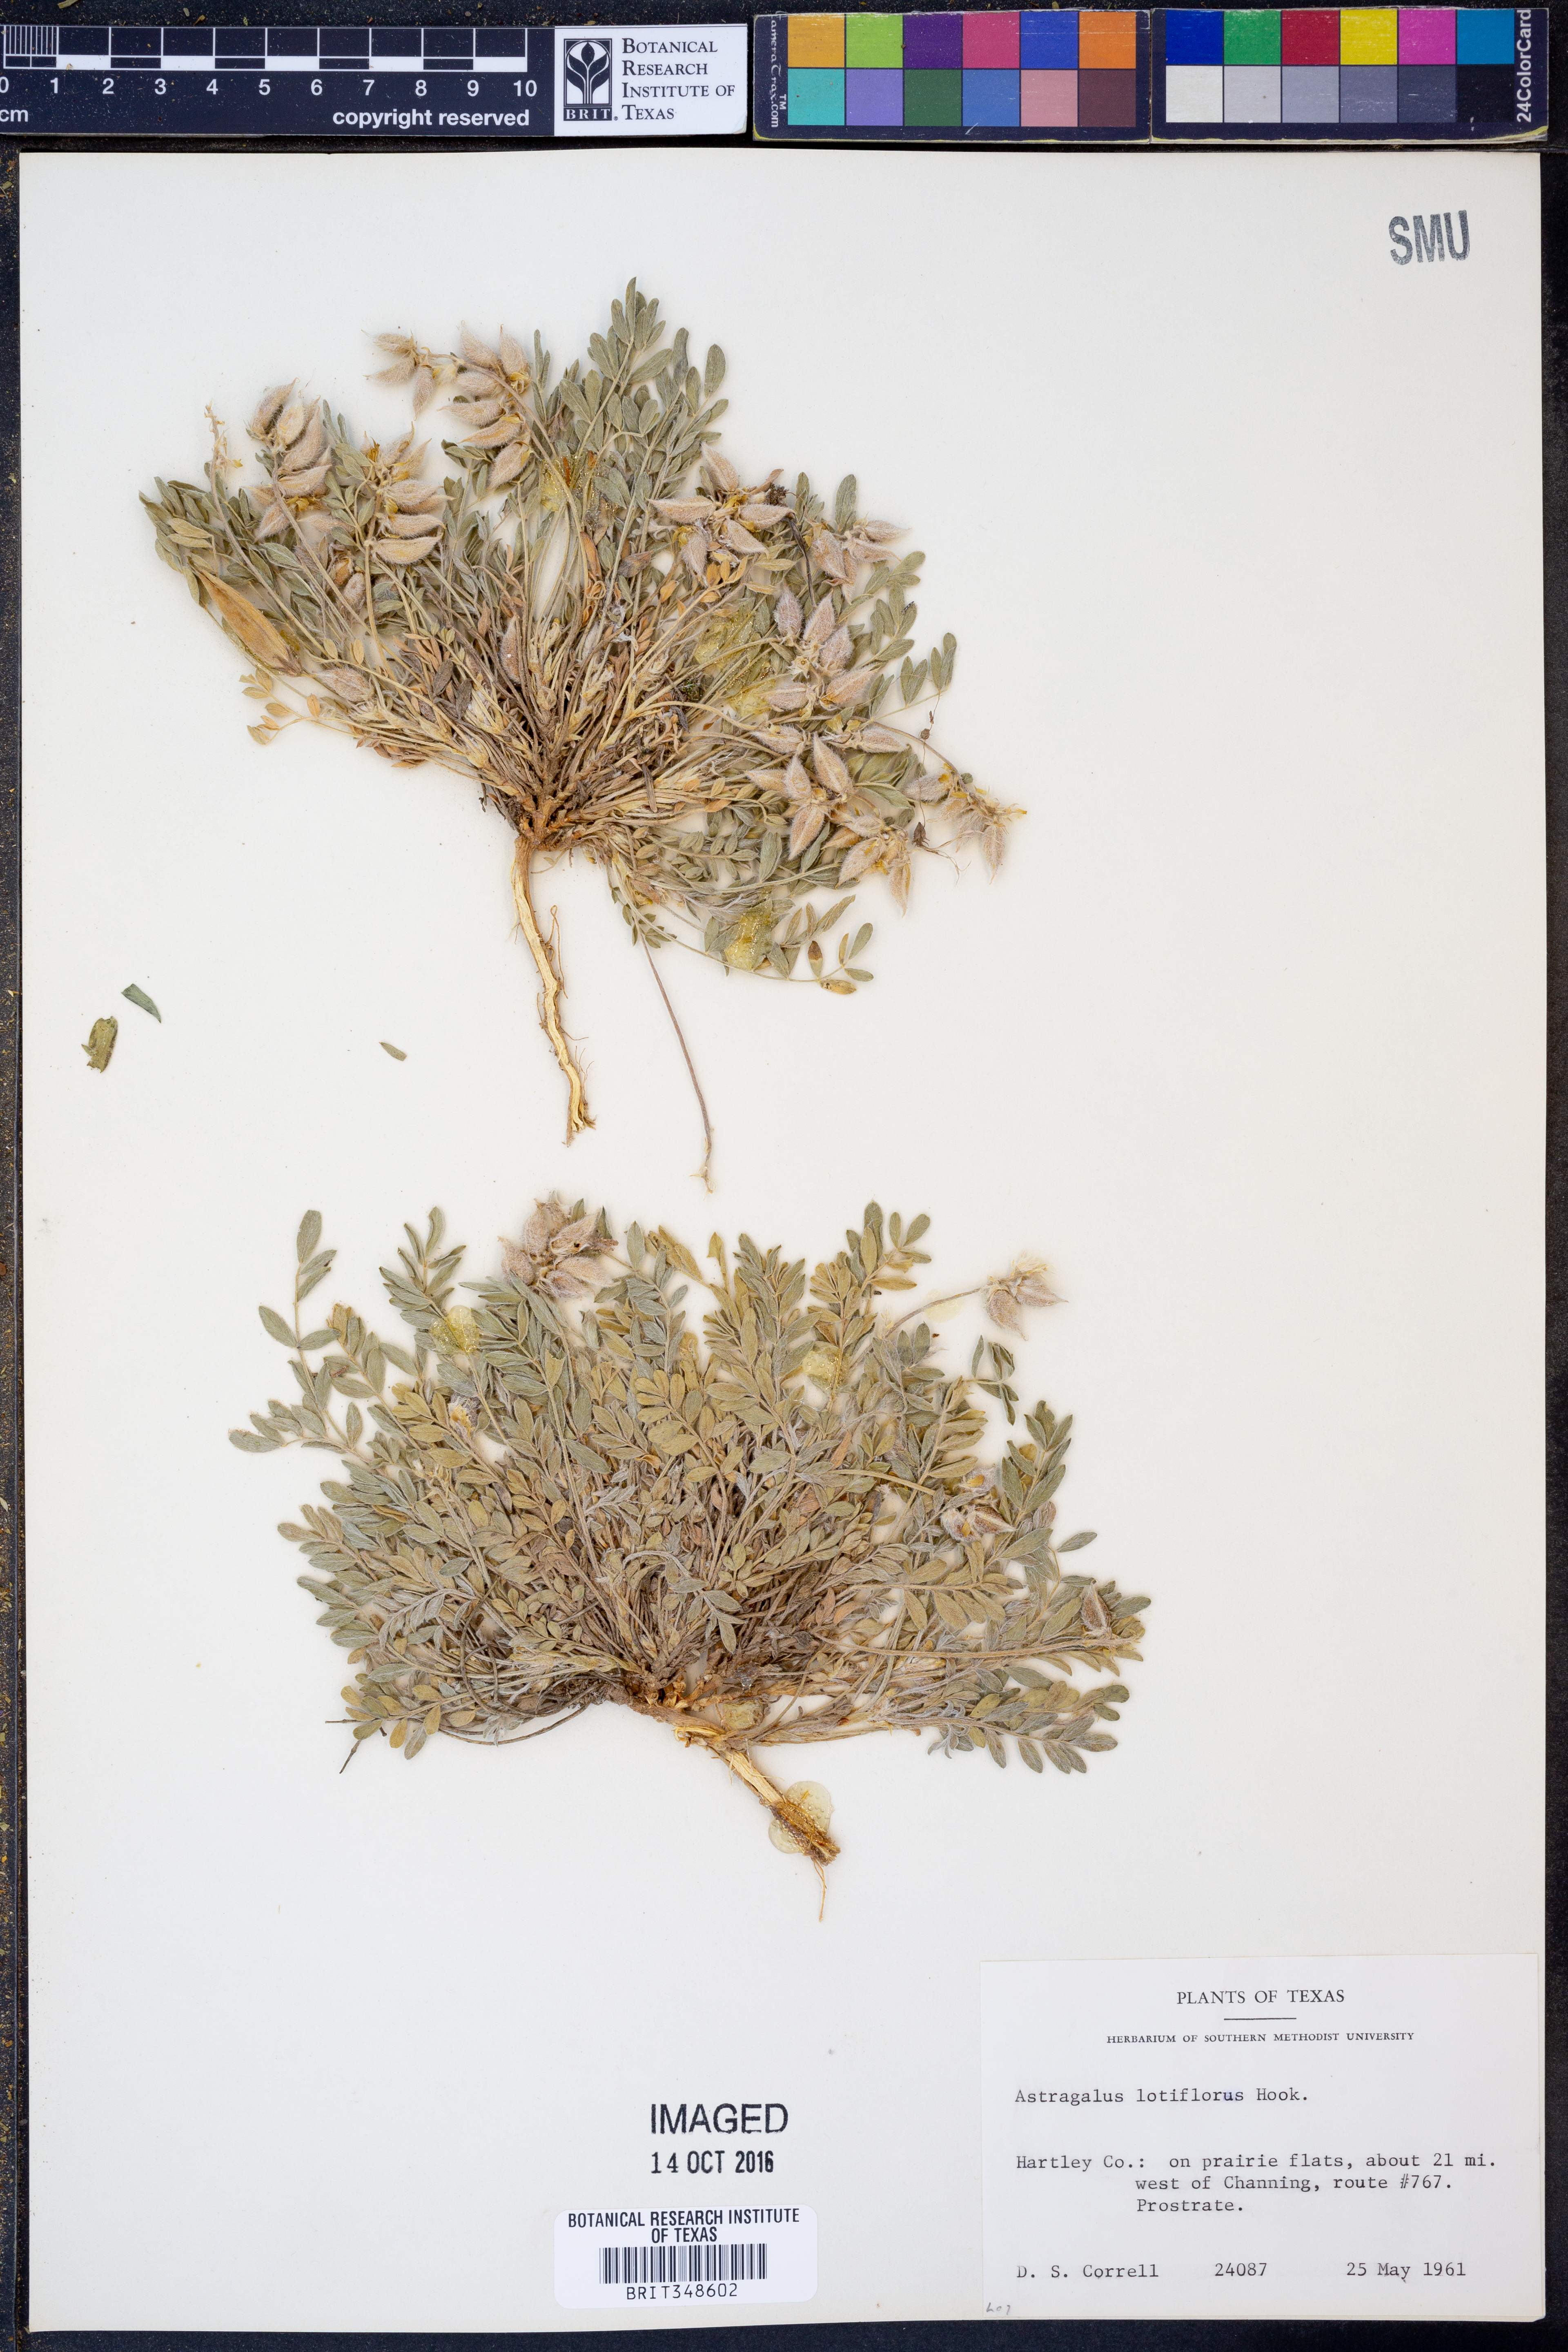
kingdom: Plantae
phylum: Tracheophyta
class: Magnoliopsida
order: Fabales
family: Fabaceae
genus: Astragalus
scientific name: Astragalus lotiflorus
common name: Lotus milk-vetch
